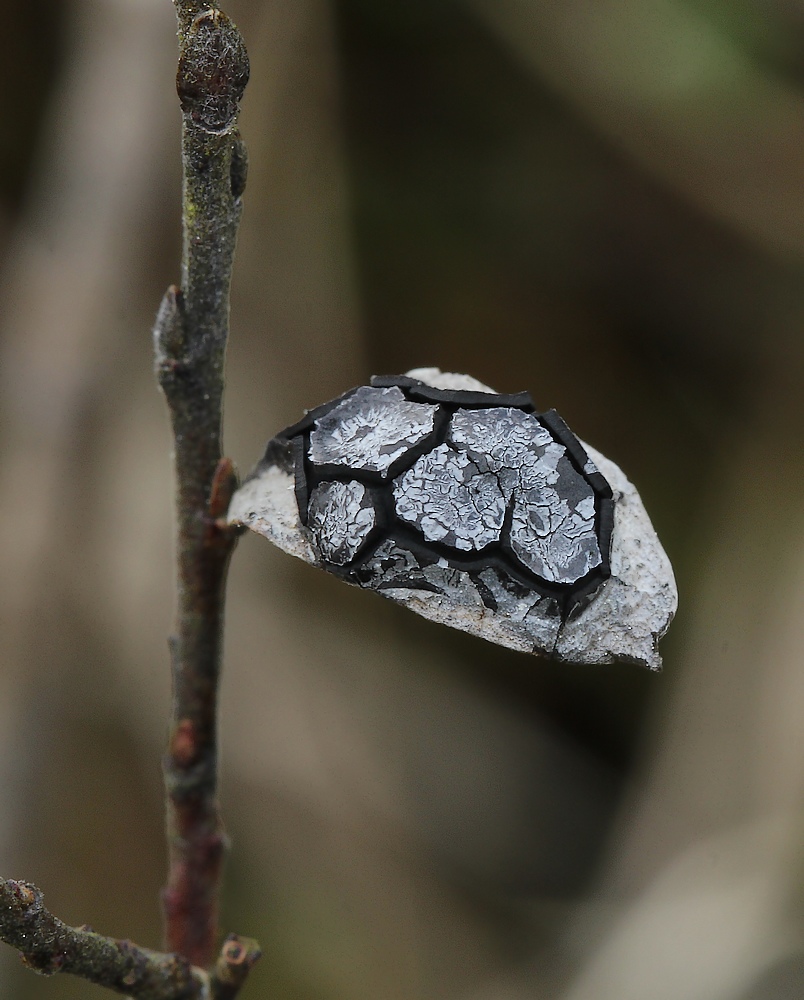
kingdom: Fungi
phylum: Ascomycota
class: Leotiomycetes
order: Rhytismatales
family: Rhytismataceae
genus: Rhytisma
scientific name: Rhytisma salicinum
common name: pile-rynkeplet
